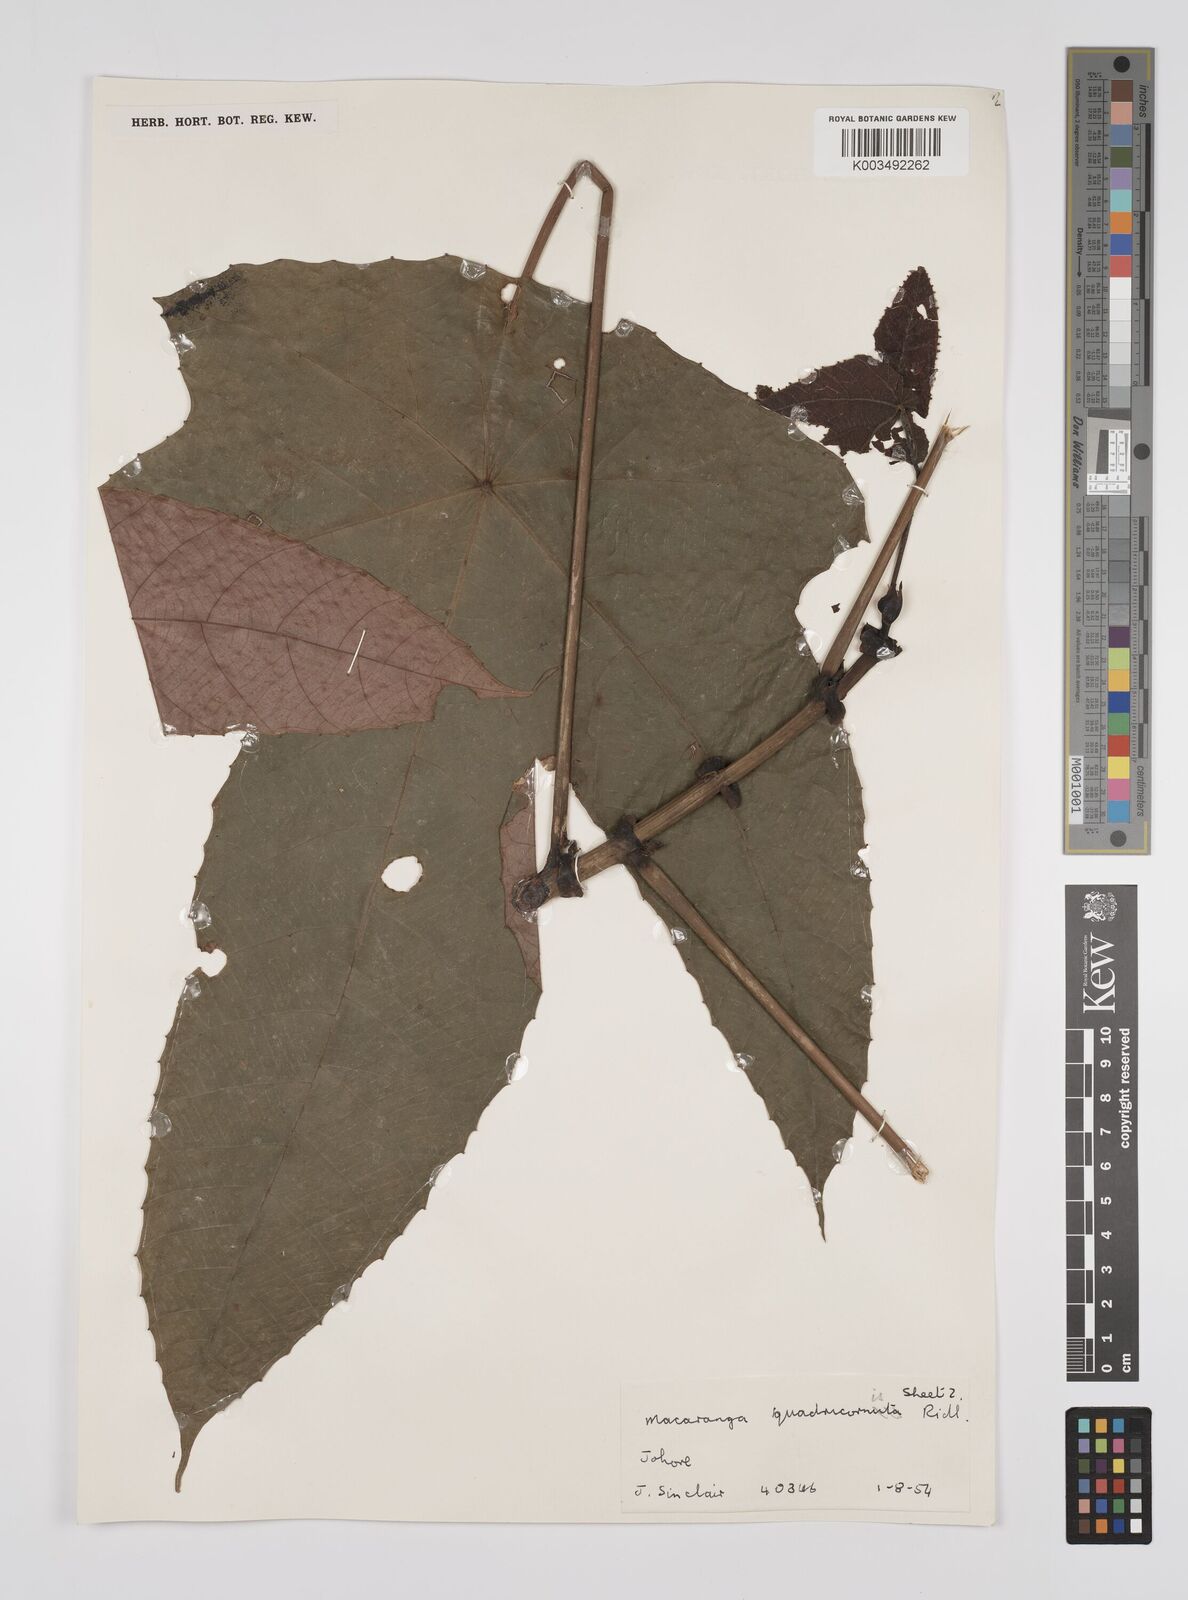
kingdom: Plantae
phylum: Tracheophyta
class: Magnoliopsida
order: Malpighiales
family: Euphorbiaceae
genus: Macaranga
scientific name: Macaranga triloba
